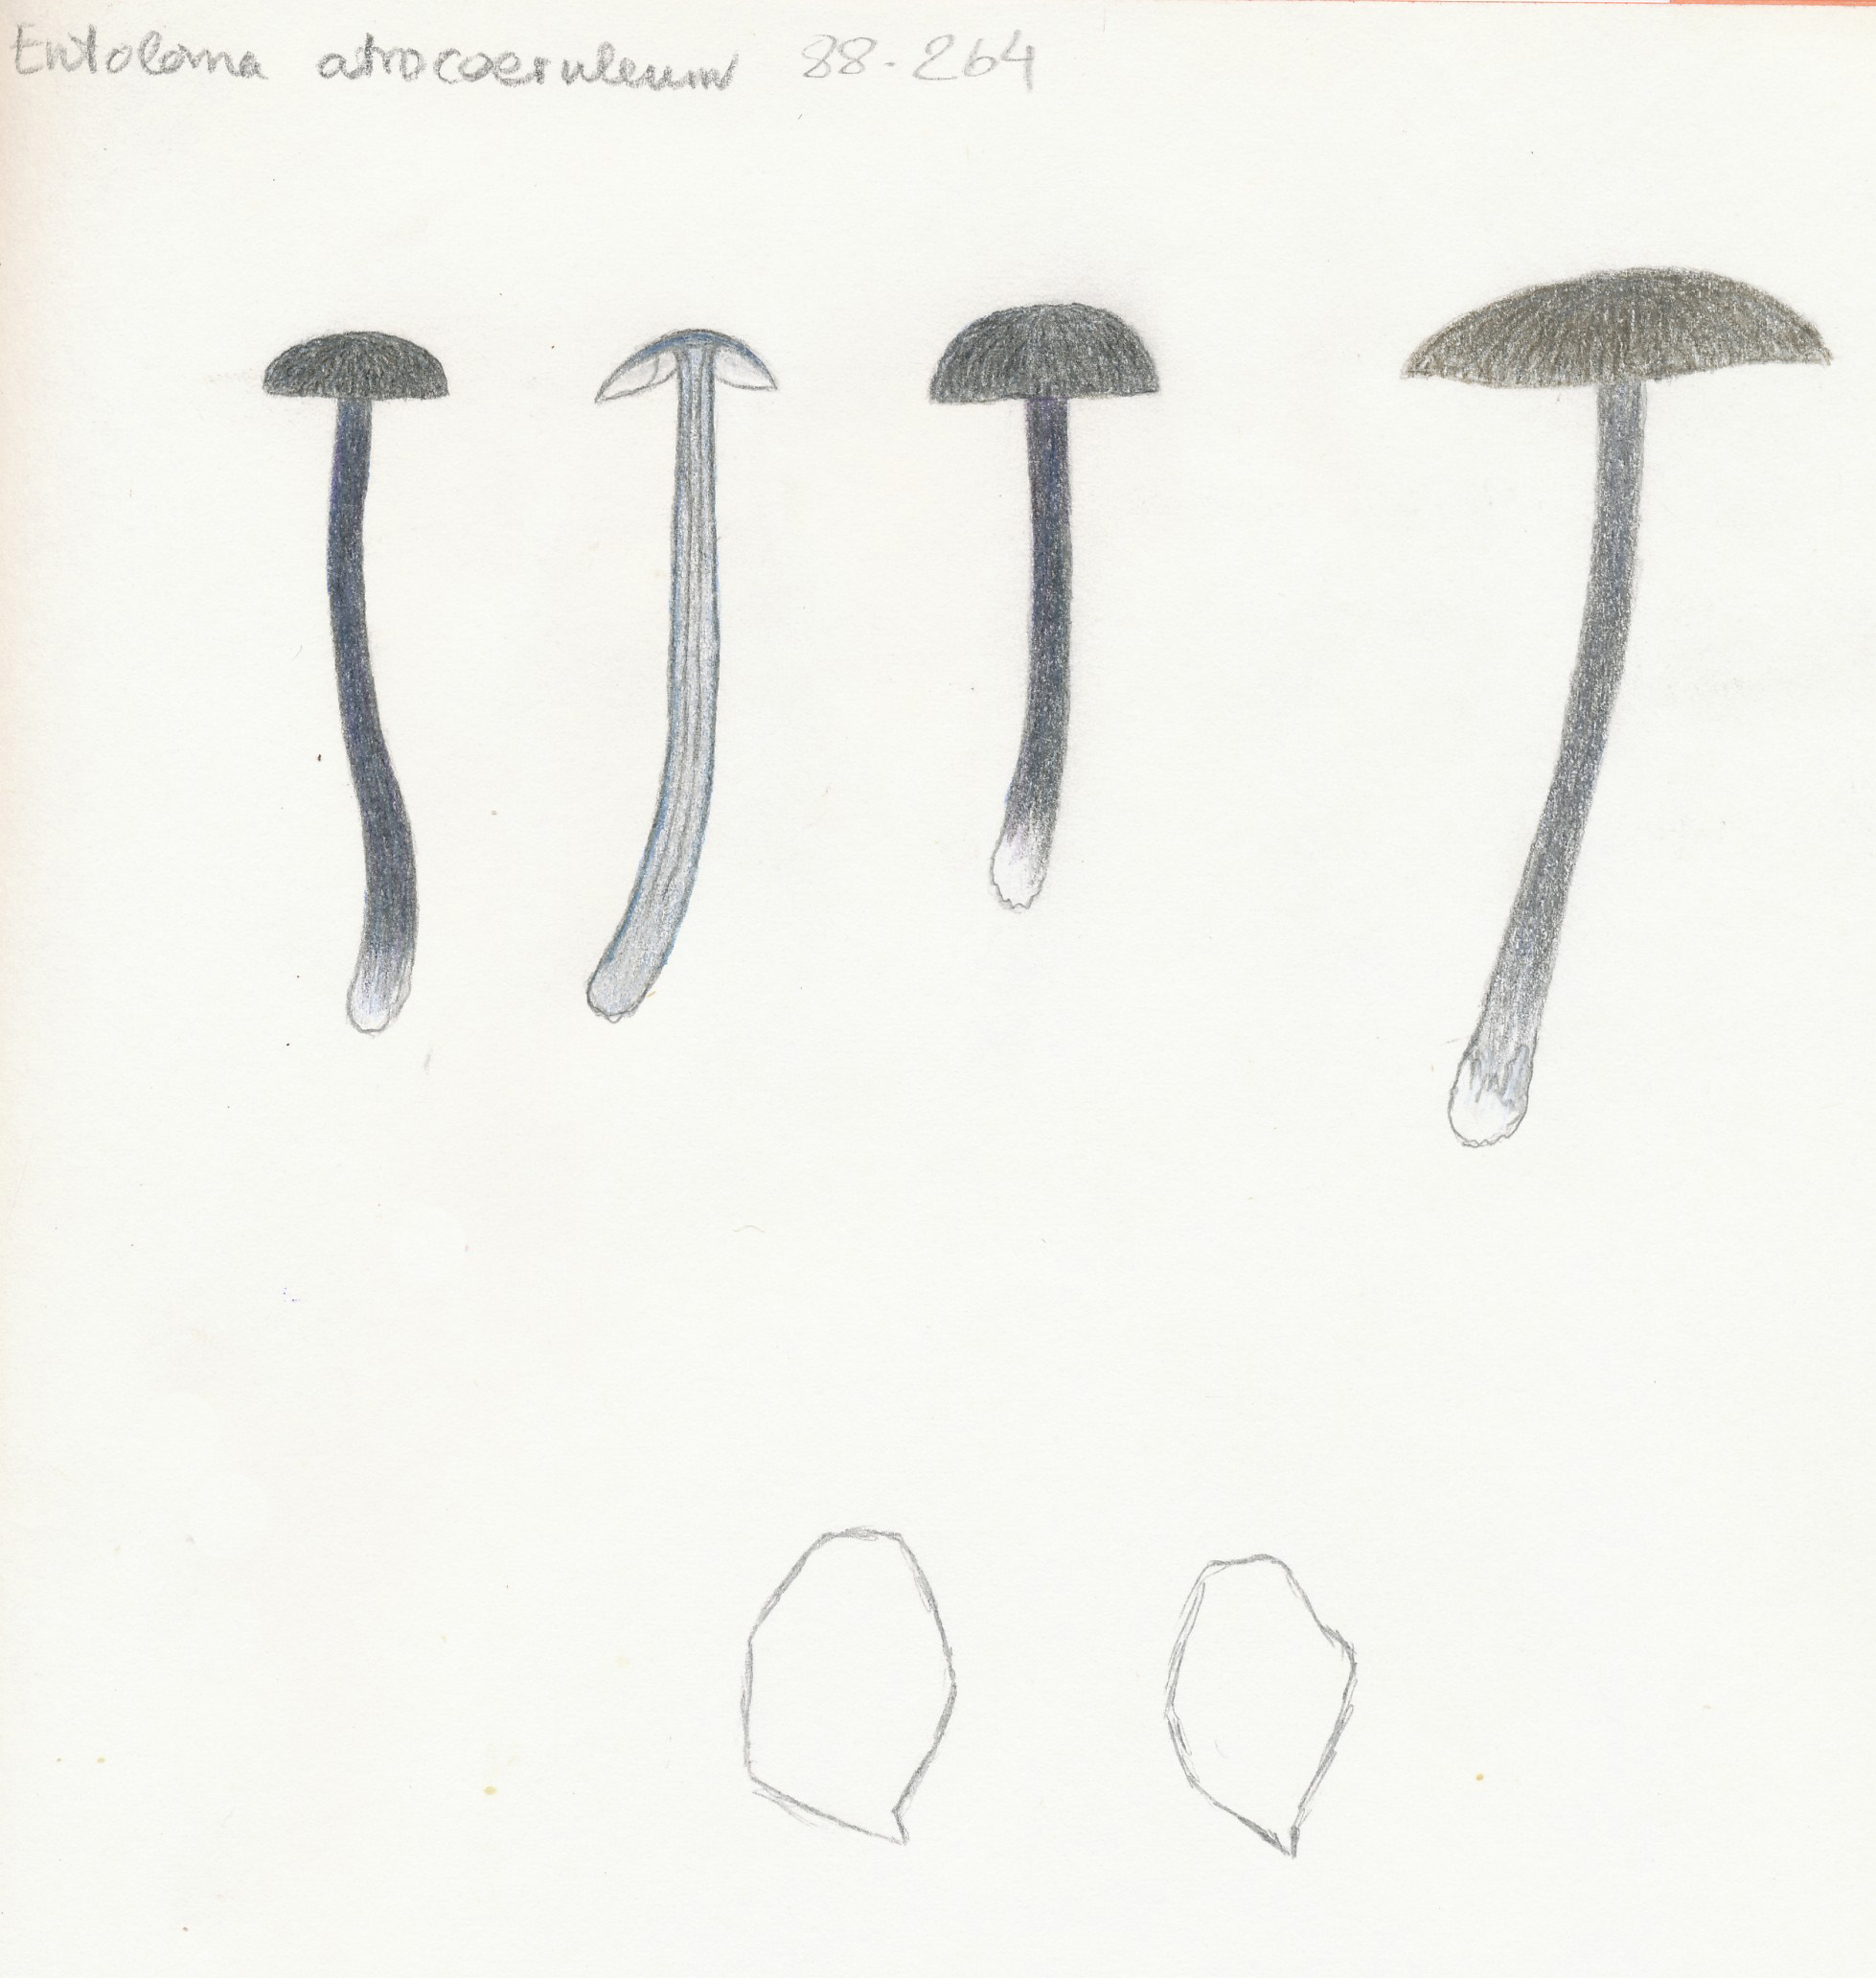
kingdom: Fungi
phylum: Basidiomycota
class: Agaricomycetes
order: Agaricales
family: Entolomataceae
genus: Entoloma
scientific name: Entoloma atrocoeruleum
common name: sortblå rødblad
